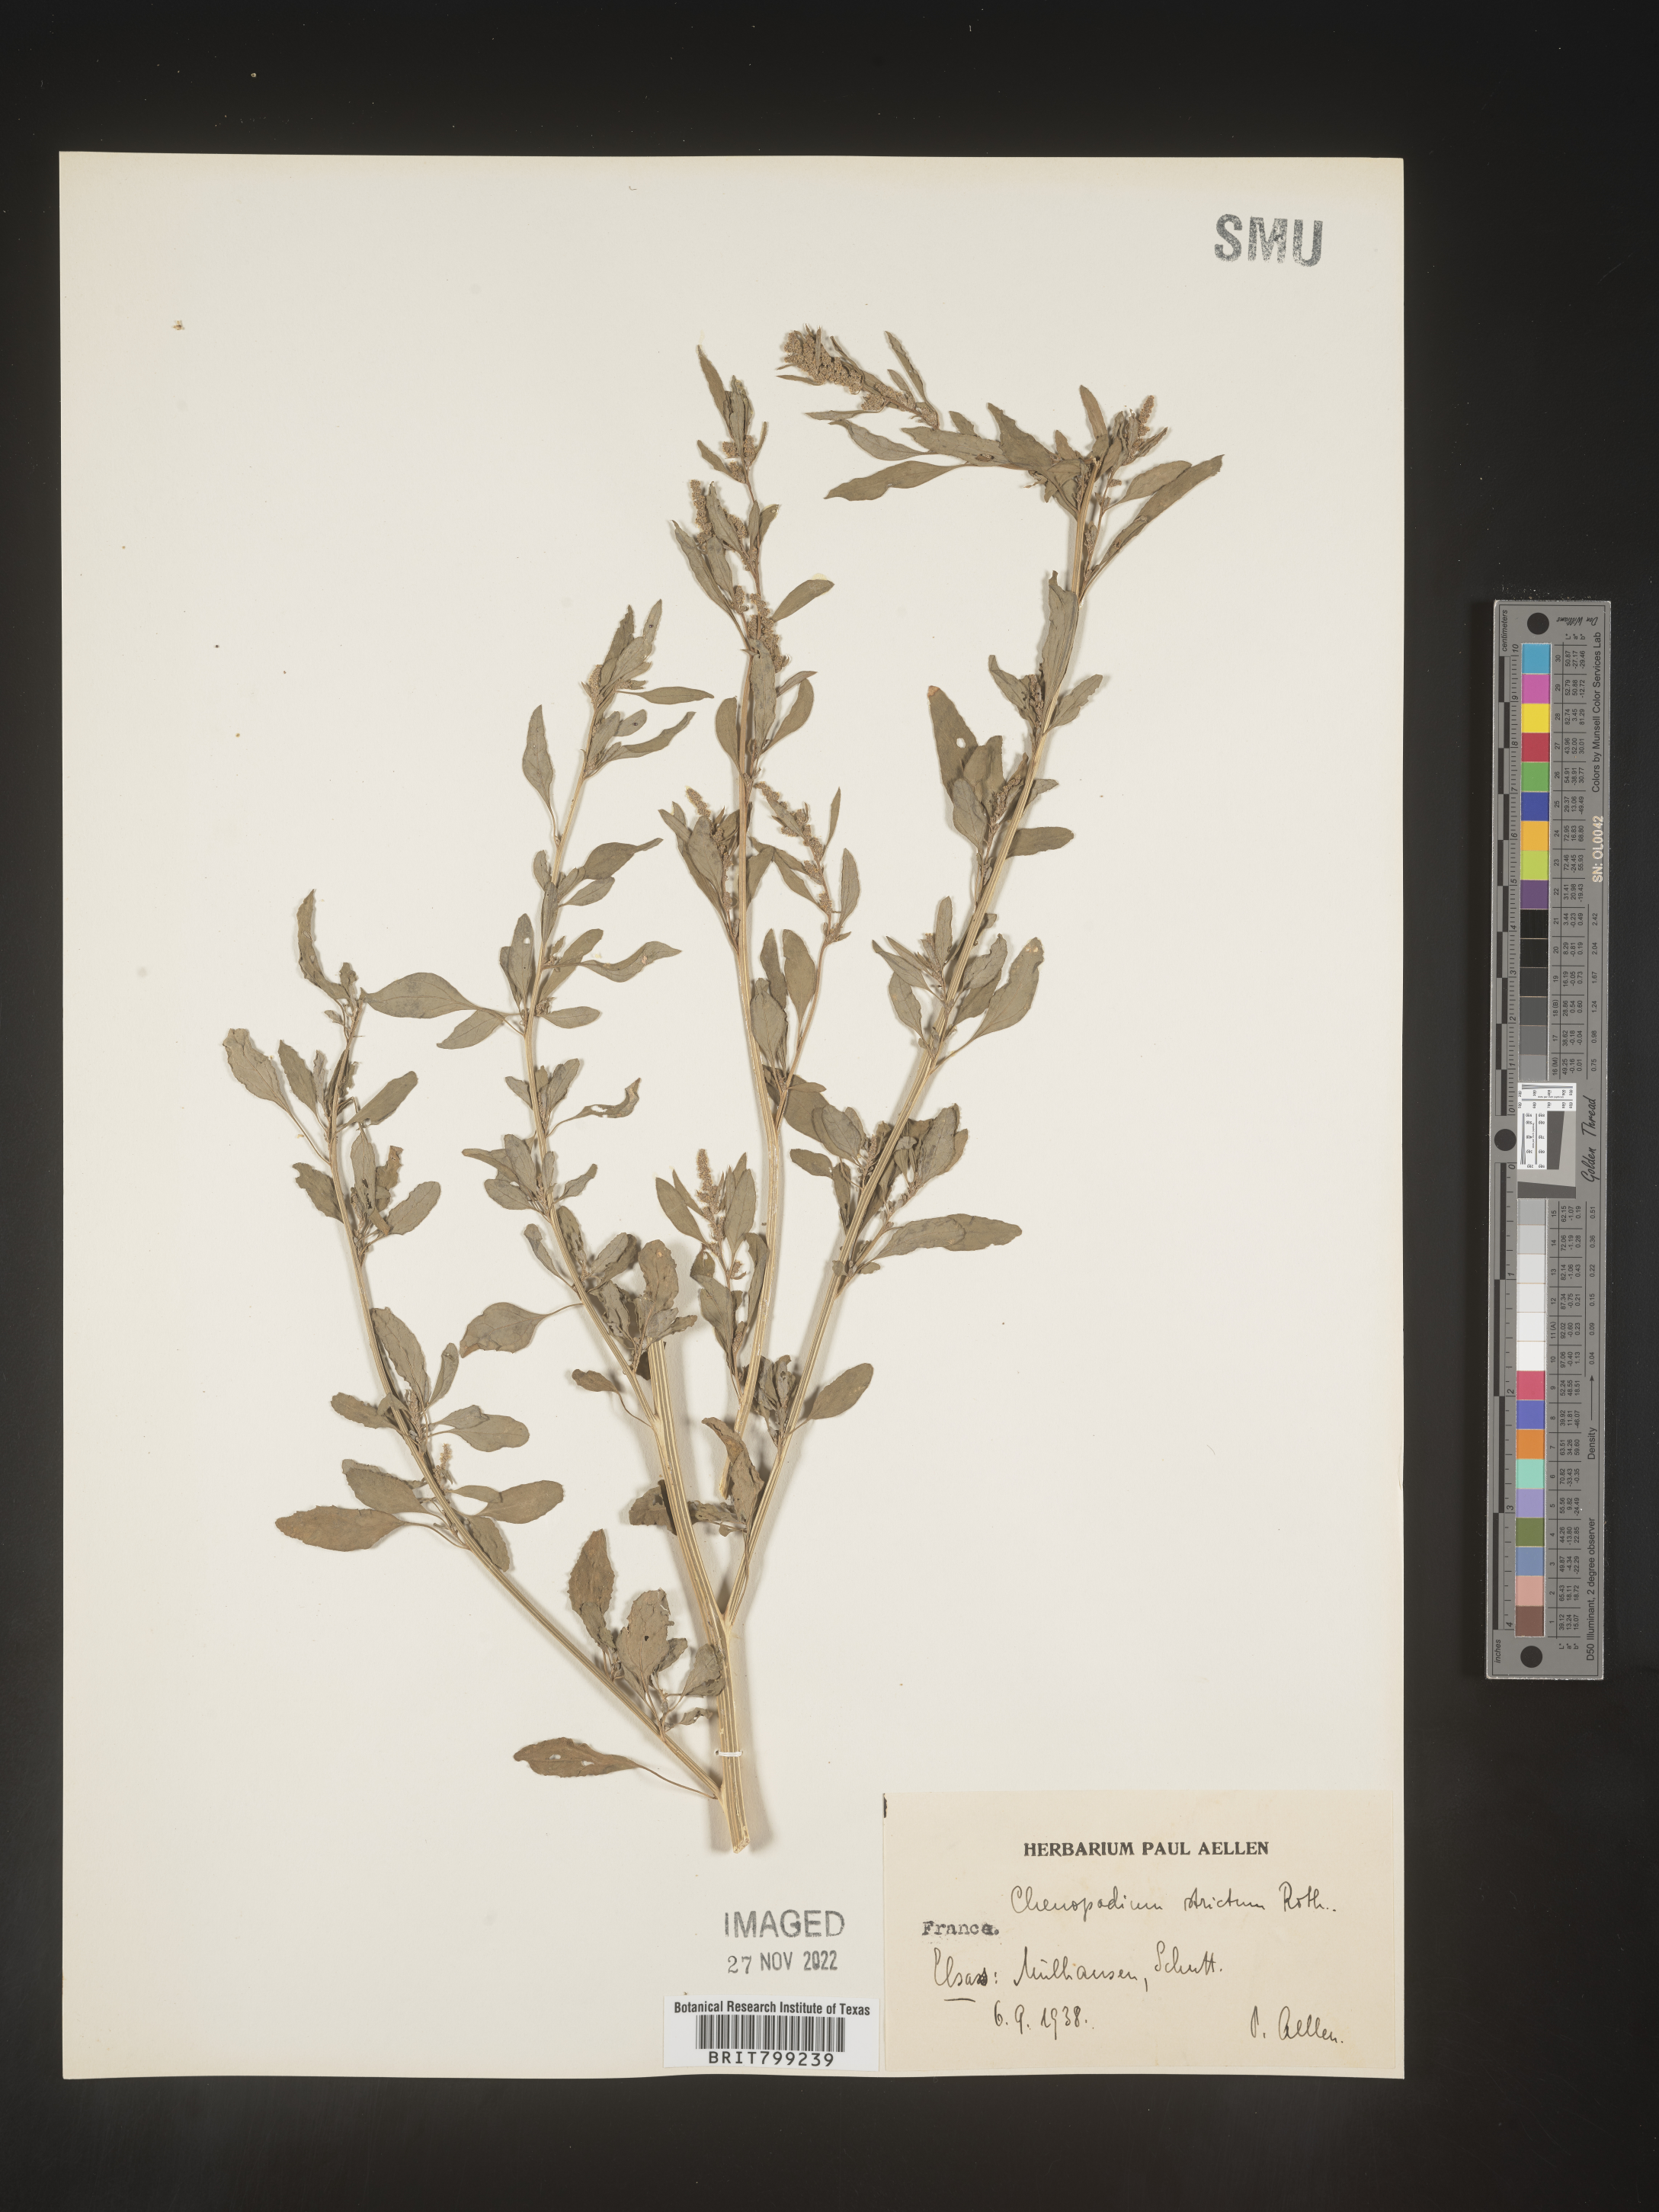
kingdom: Plantae
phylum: Tracheophyta
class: Magnoliopsida
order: Caryophyllales
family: Amaranthaceae
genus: Chenopodium
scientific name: Chenopodium
